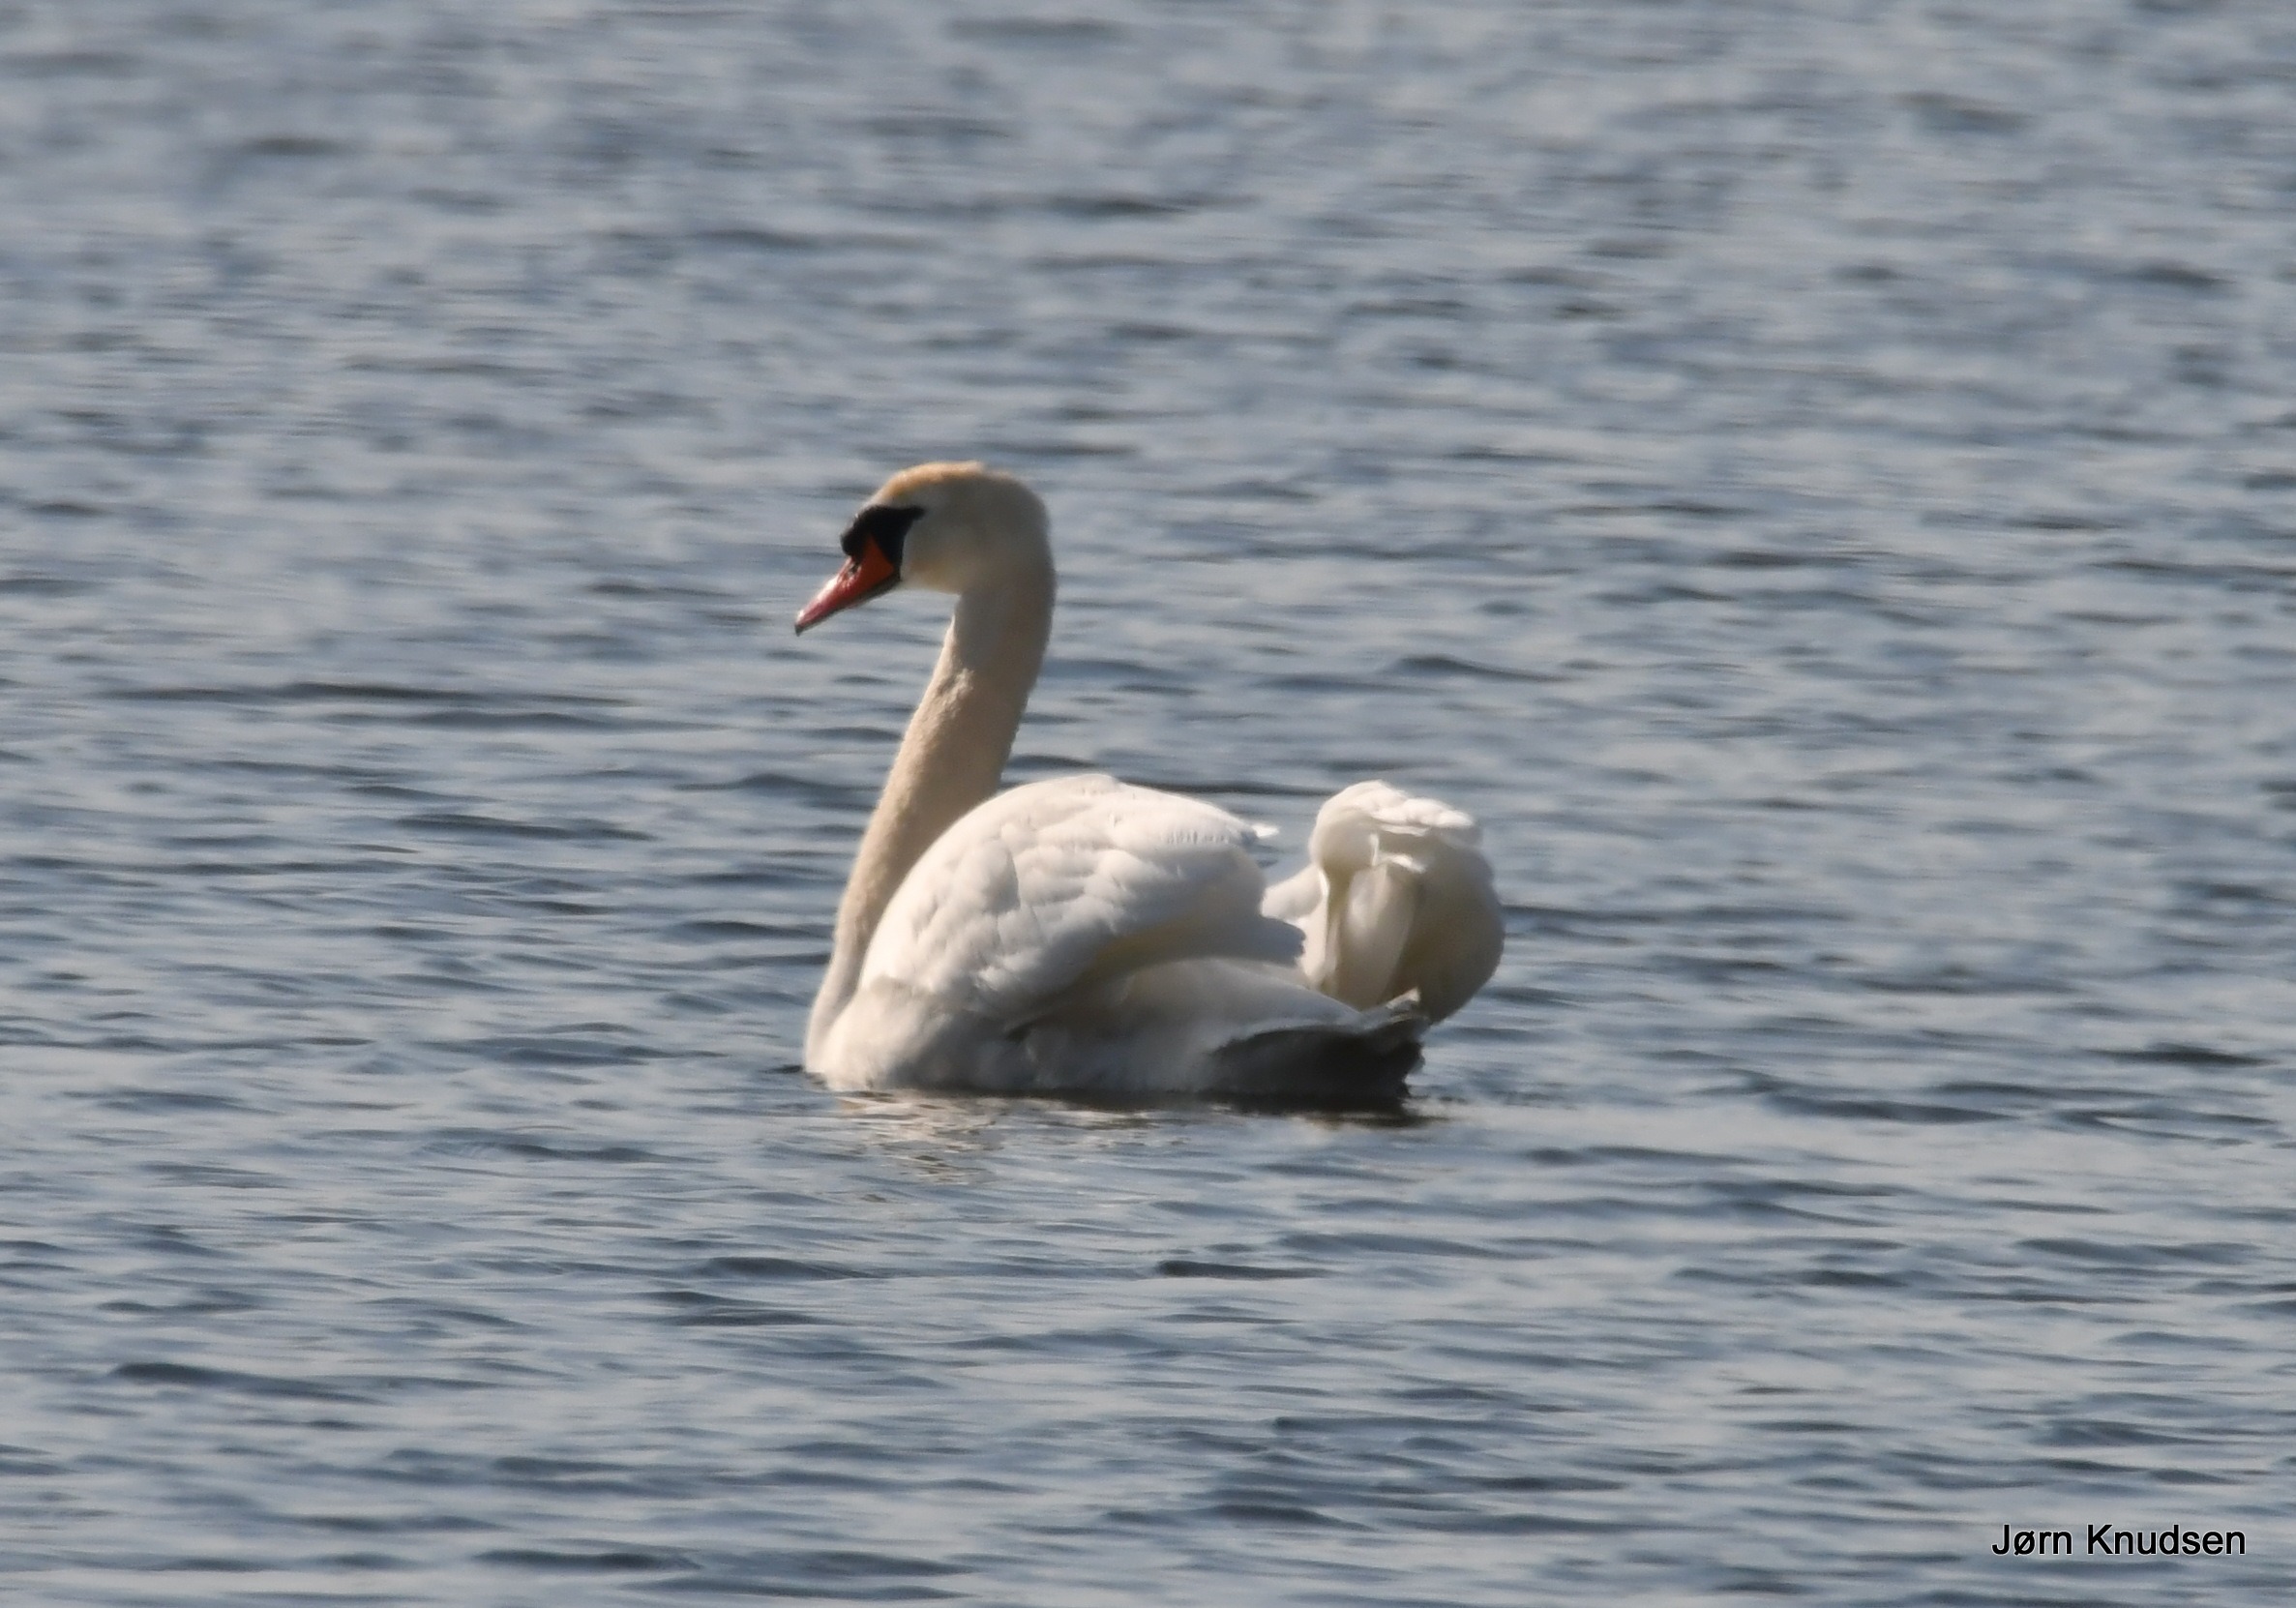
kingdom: Animalia
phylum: Chordata
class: Aves
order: Anseriformes
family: Anatidae
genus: Cygnus
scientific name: Cygnus olor
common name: Knopsvane
